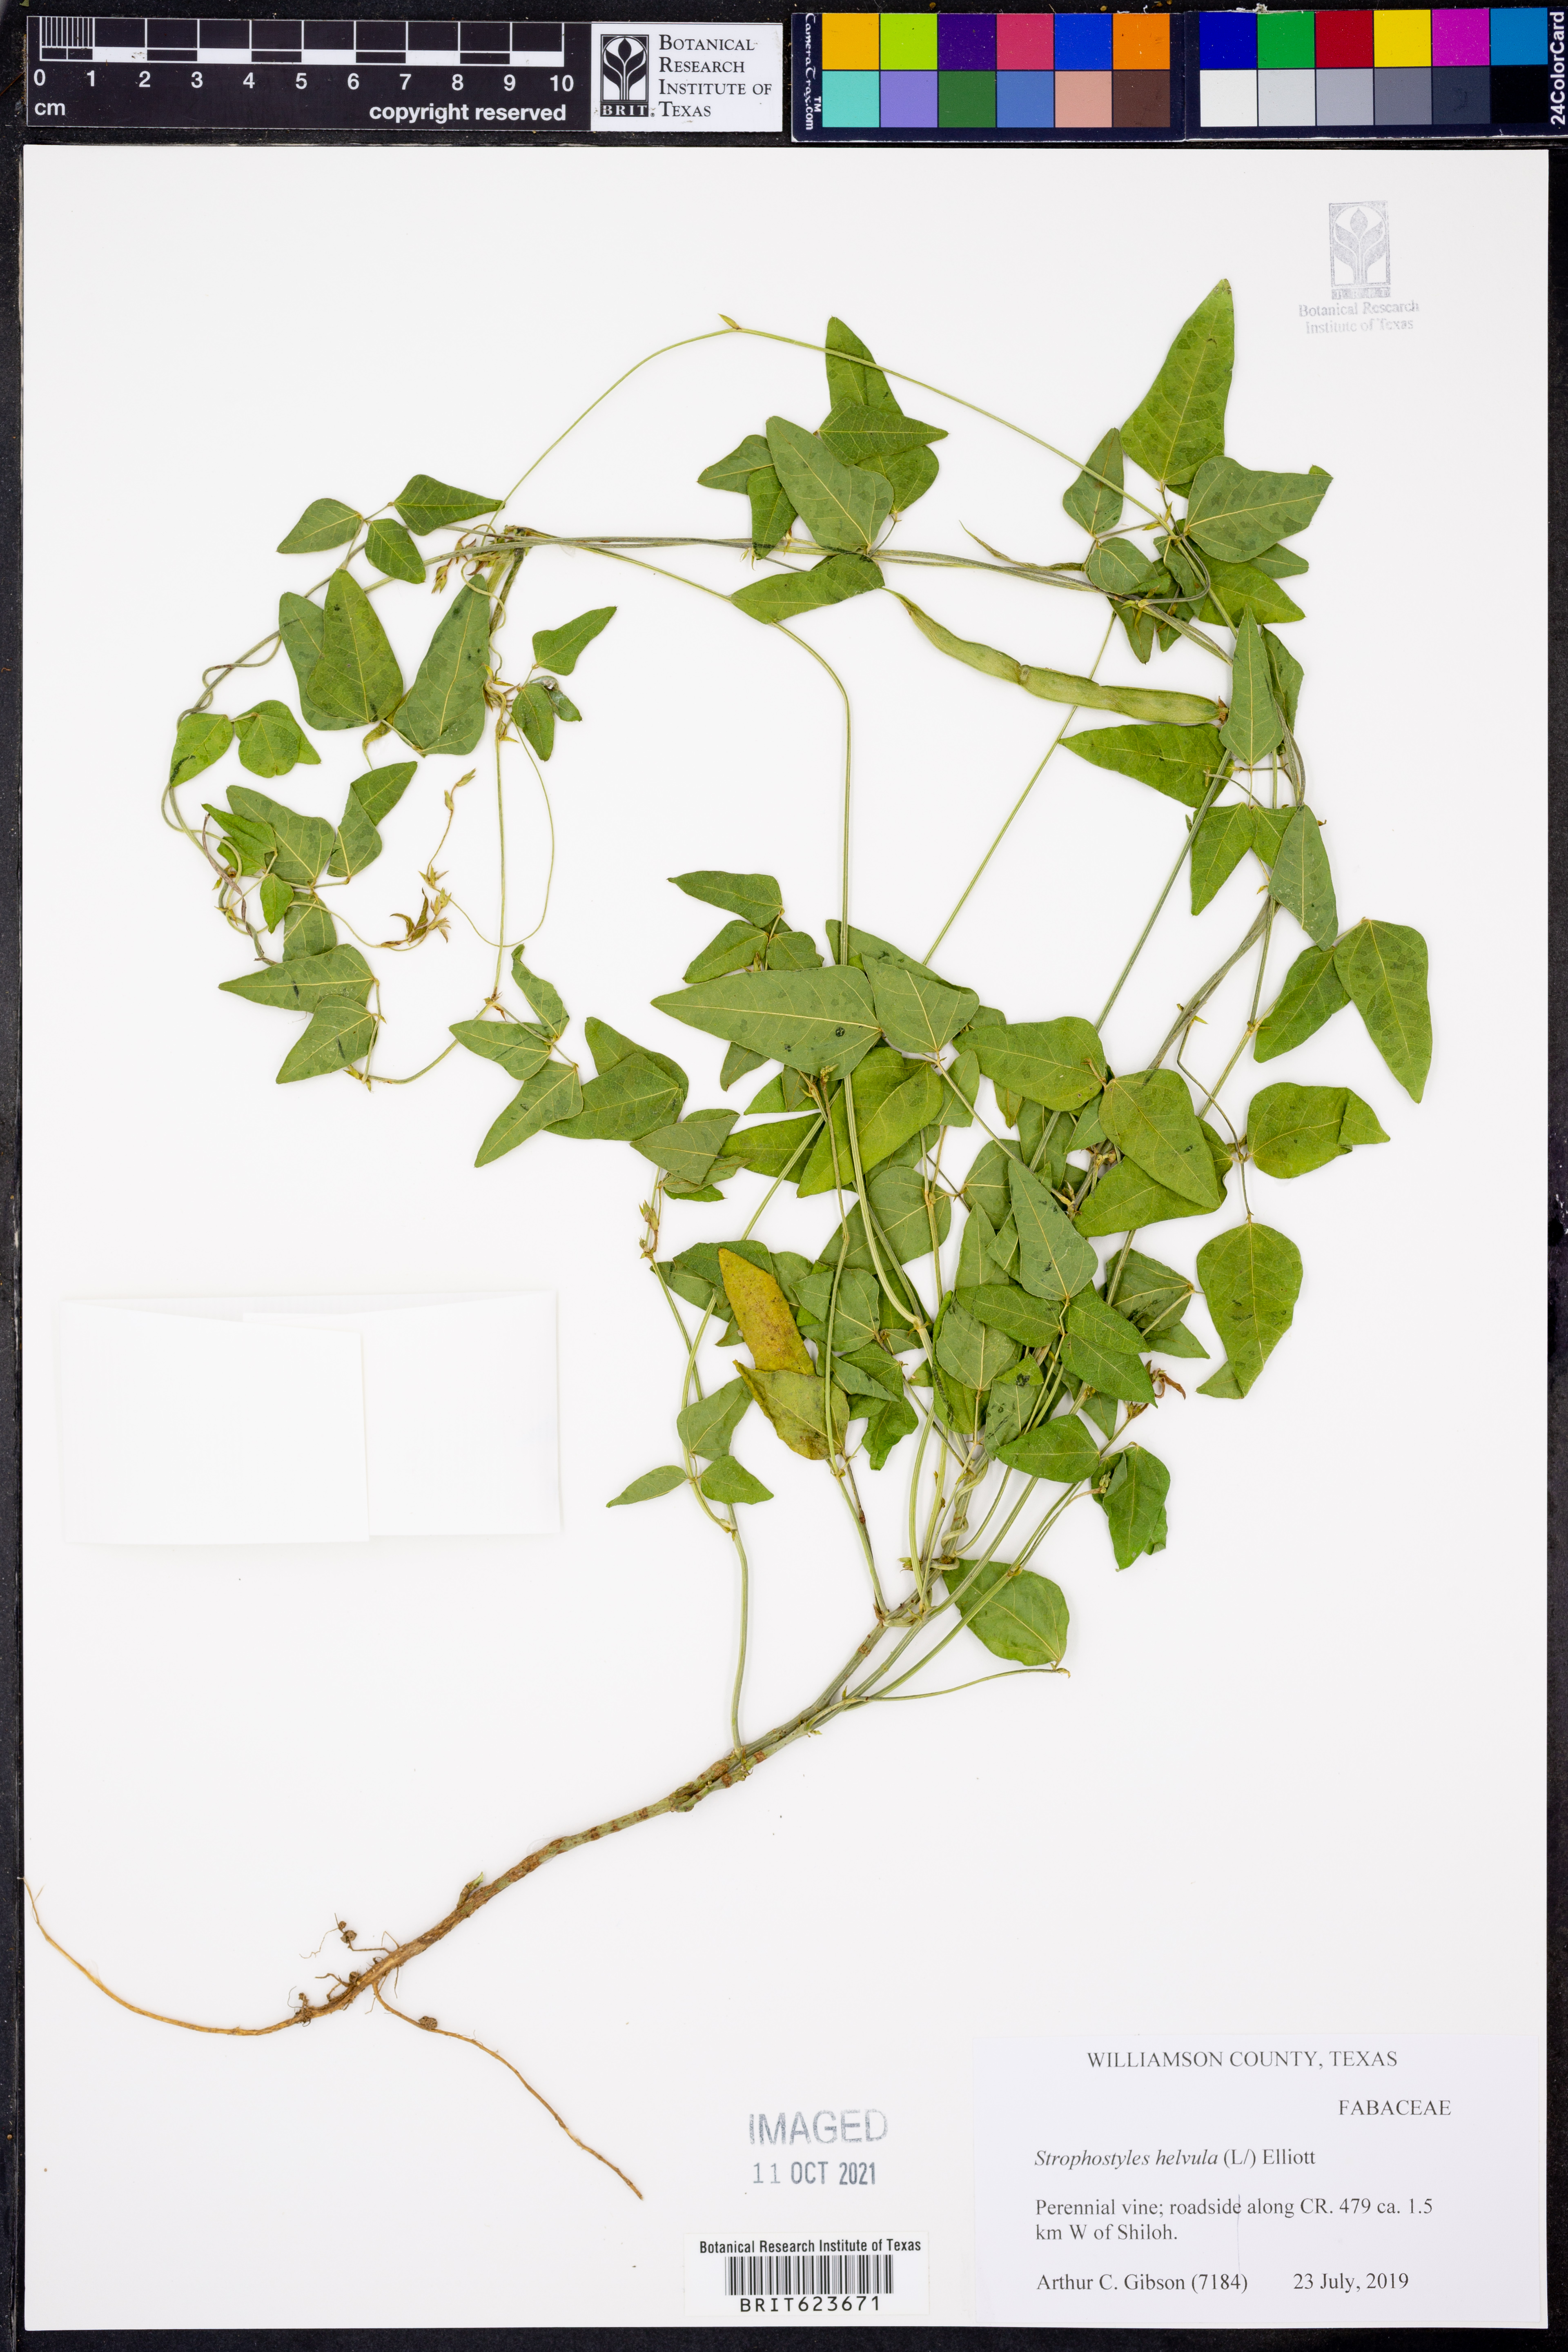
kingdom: Plantae
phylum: Tracheophyta
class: Magnoliopsida
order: Fabales
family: Fabaceae
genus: Strophostyles
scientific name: Strophostyles helvula
